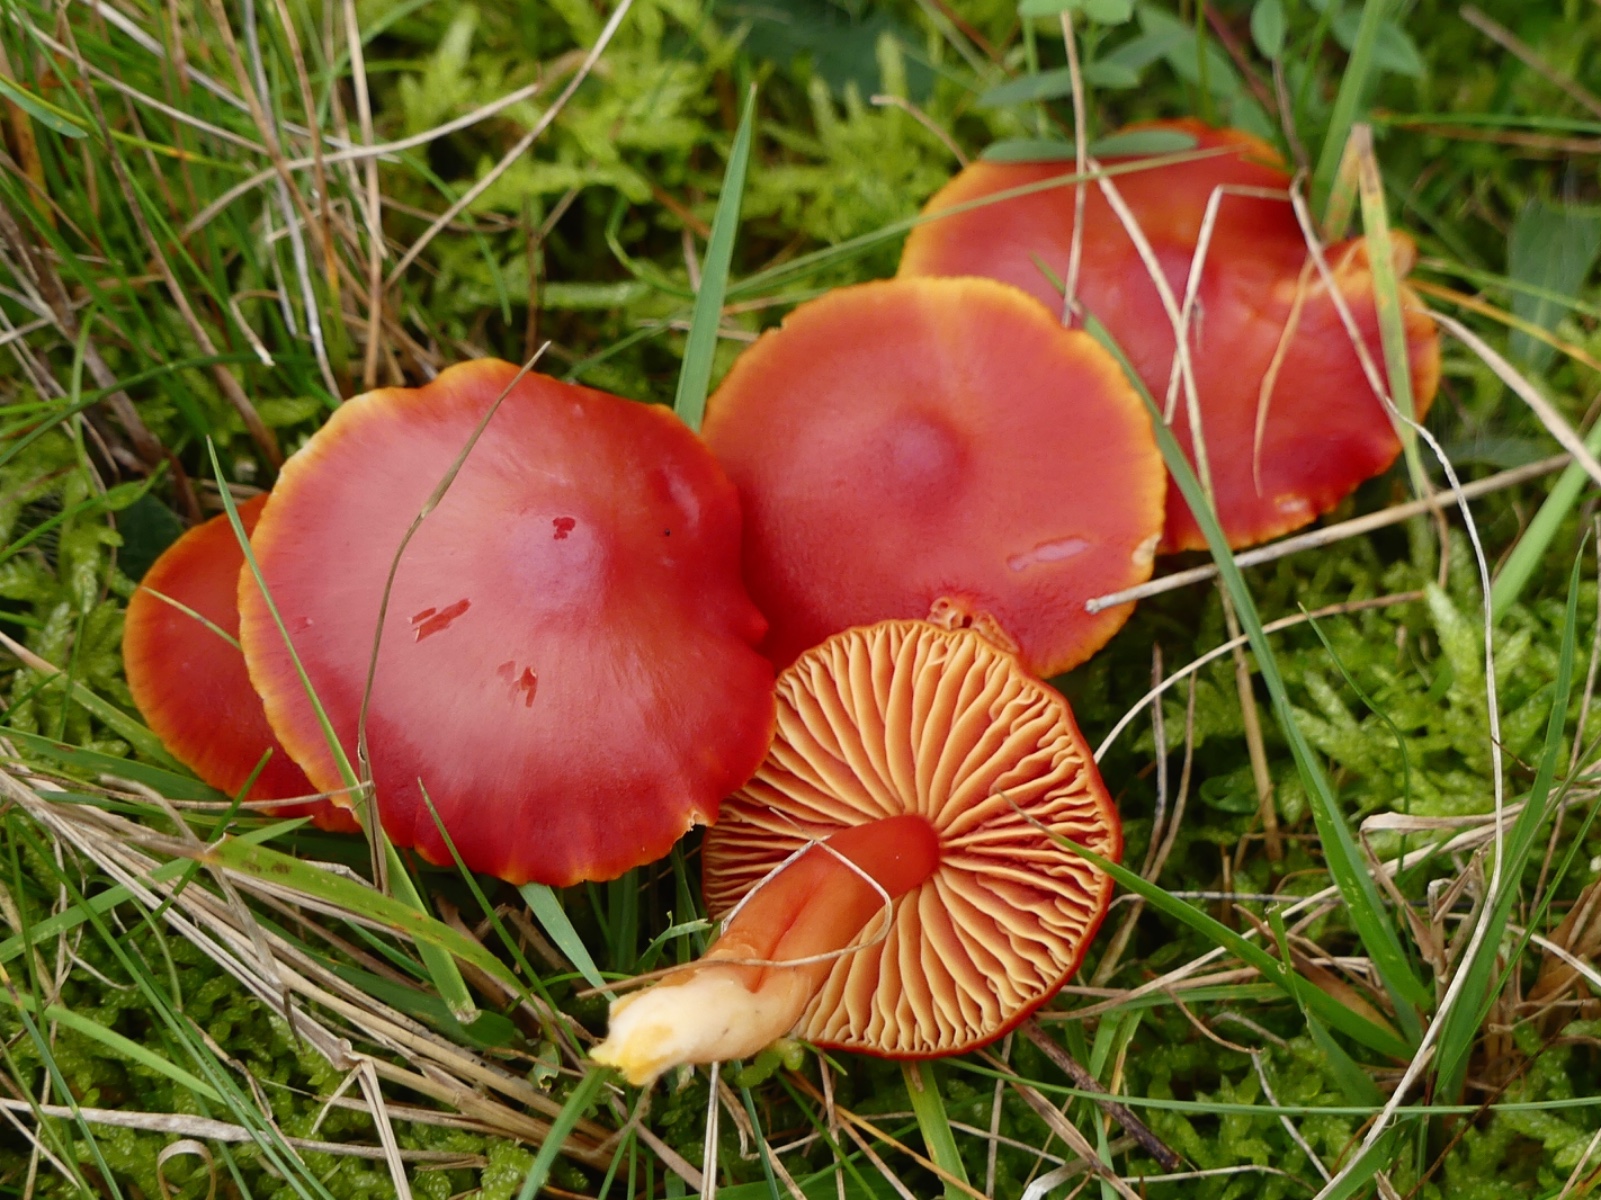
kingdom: Fungi
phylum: Basidiomycota
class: Agaricomycetes
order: Agaricales
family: Hygrophoraceae
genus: Hygrocybe
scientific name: Hygrocybe coccinea
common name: cinnober-vokshat
